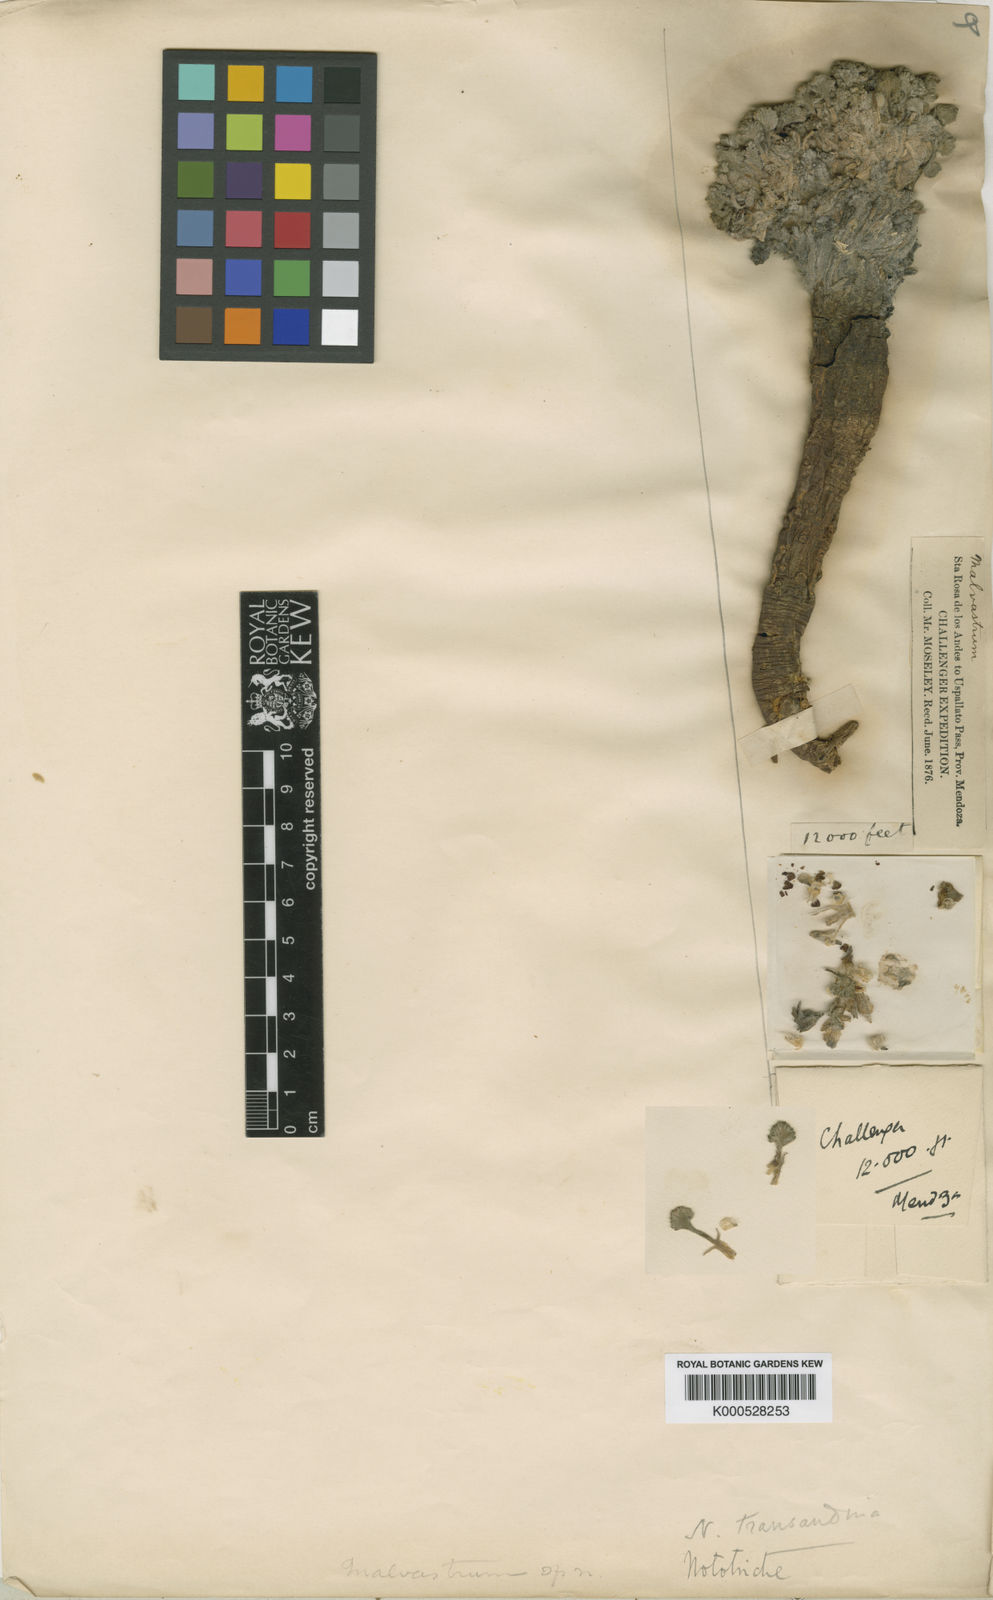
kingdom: Plantae
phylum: Tracheophyta
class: Magnoliopsida
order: Malvales
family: Malvaceae
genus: Nototriche
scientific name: Nototriche compacta
